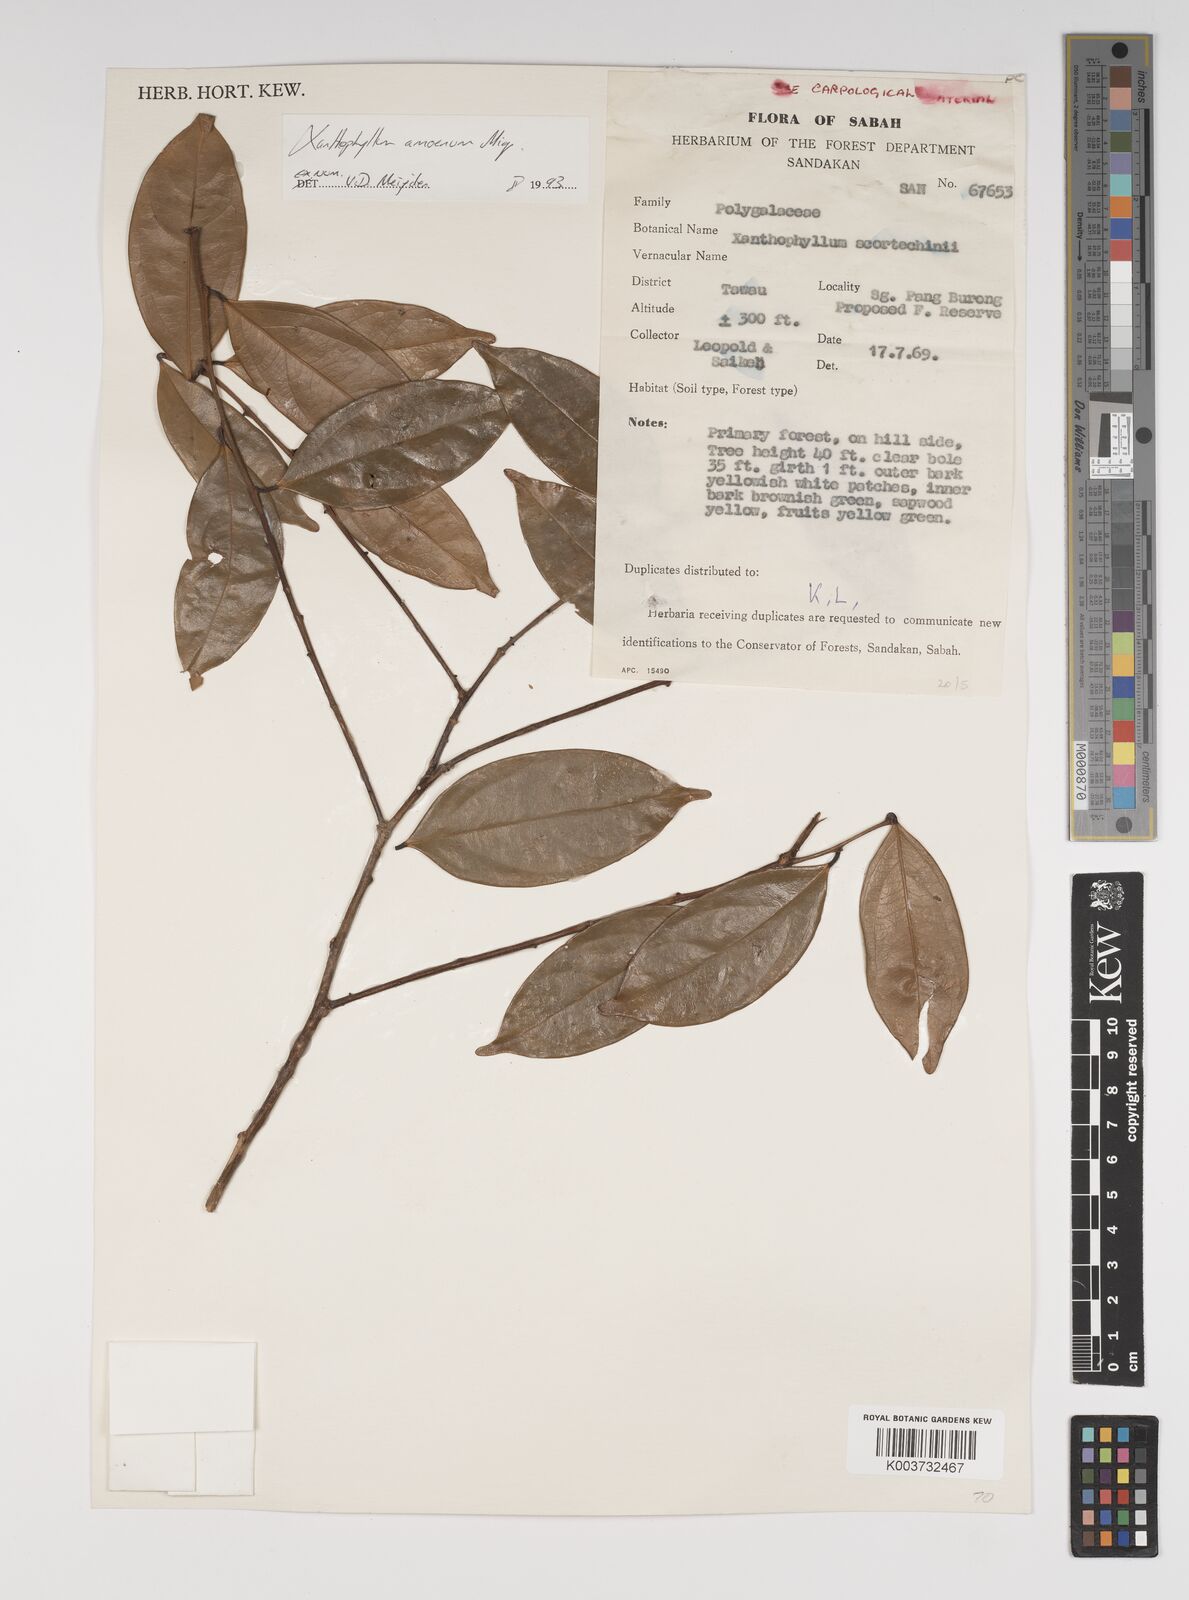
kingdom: Plantae
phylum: Tracheophyta
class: Magnoliopsida
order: Fabales
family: Polygalaceae
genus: Xanthophyllum
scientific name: Xanthophyllum stipitatum
